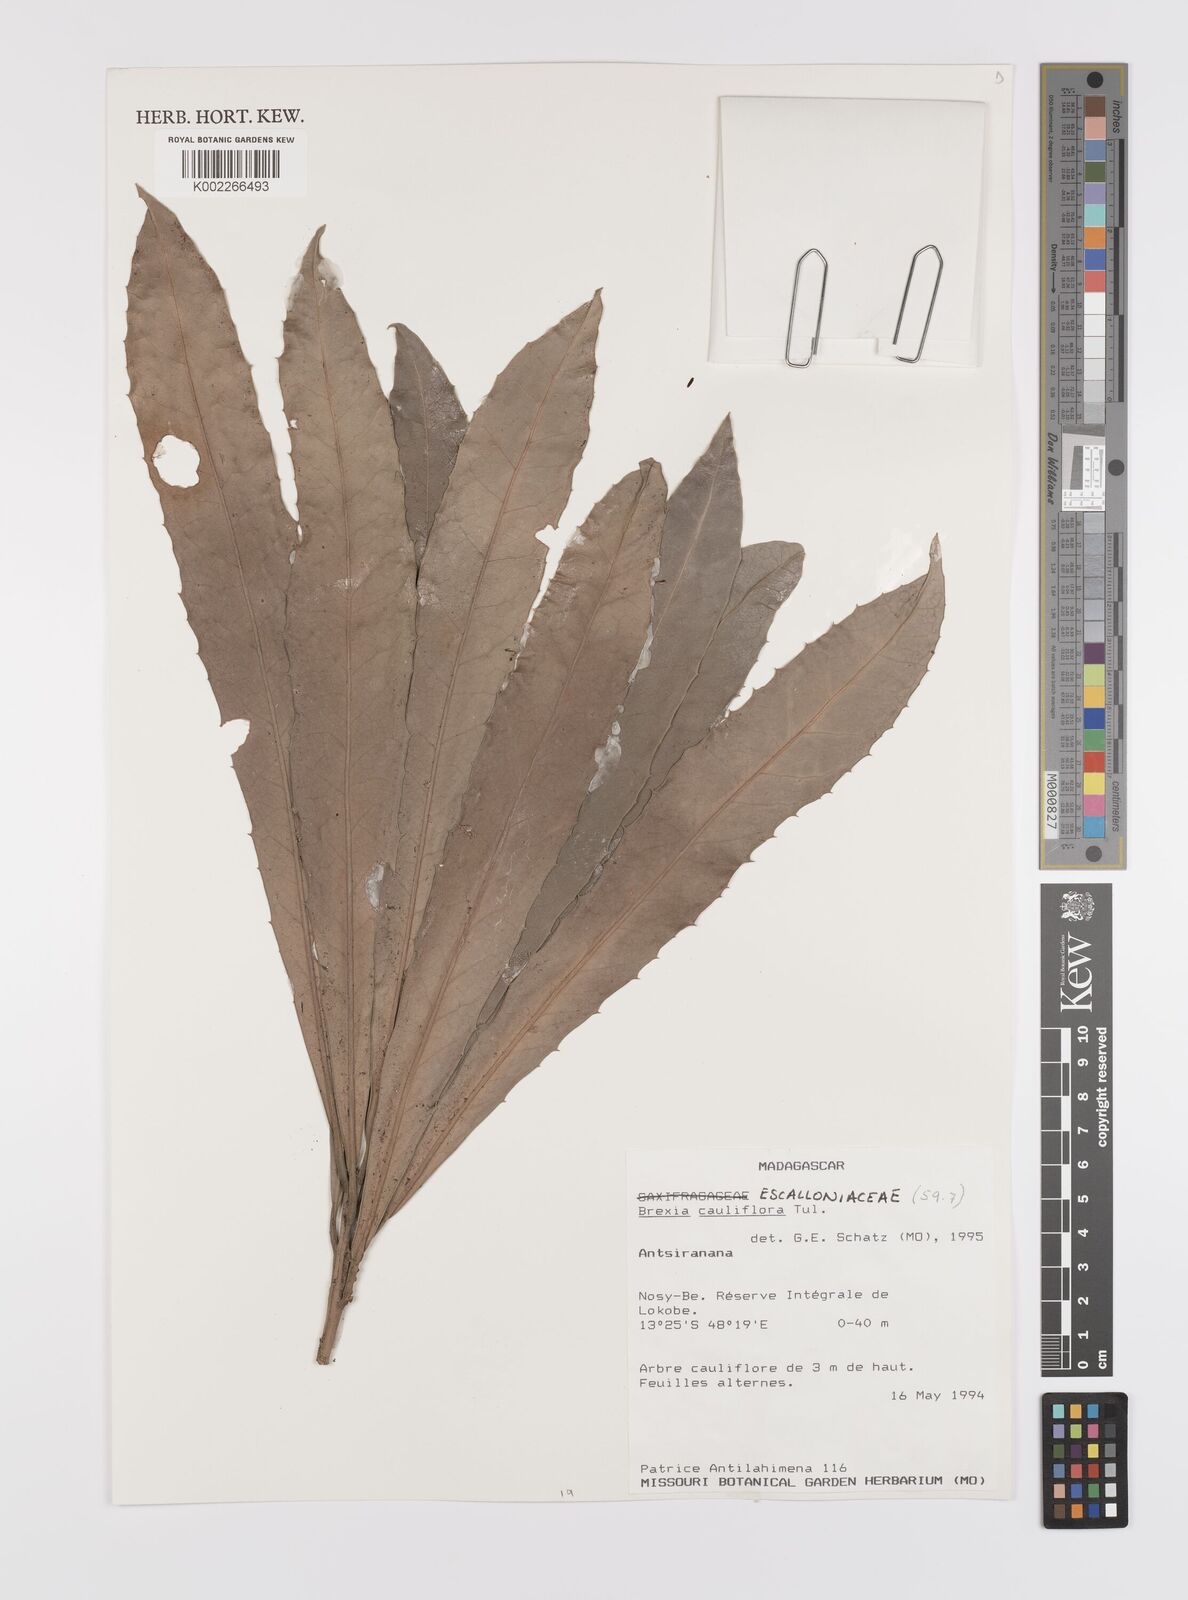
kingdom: Plantae
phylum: Tracheophyta
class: Magnoliopsida
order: Celastrales
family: Celastraceae
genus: Brexia
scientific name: Brexia cauliflora
